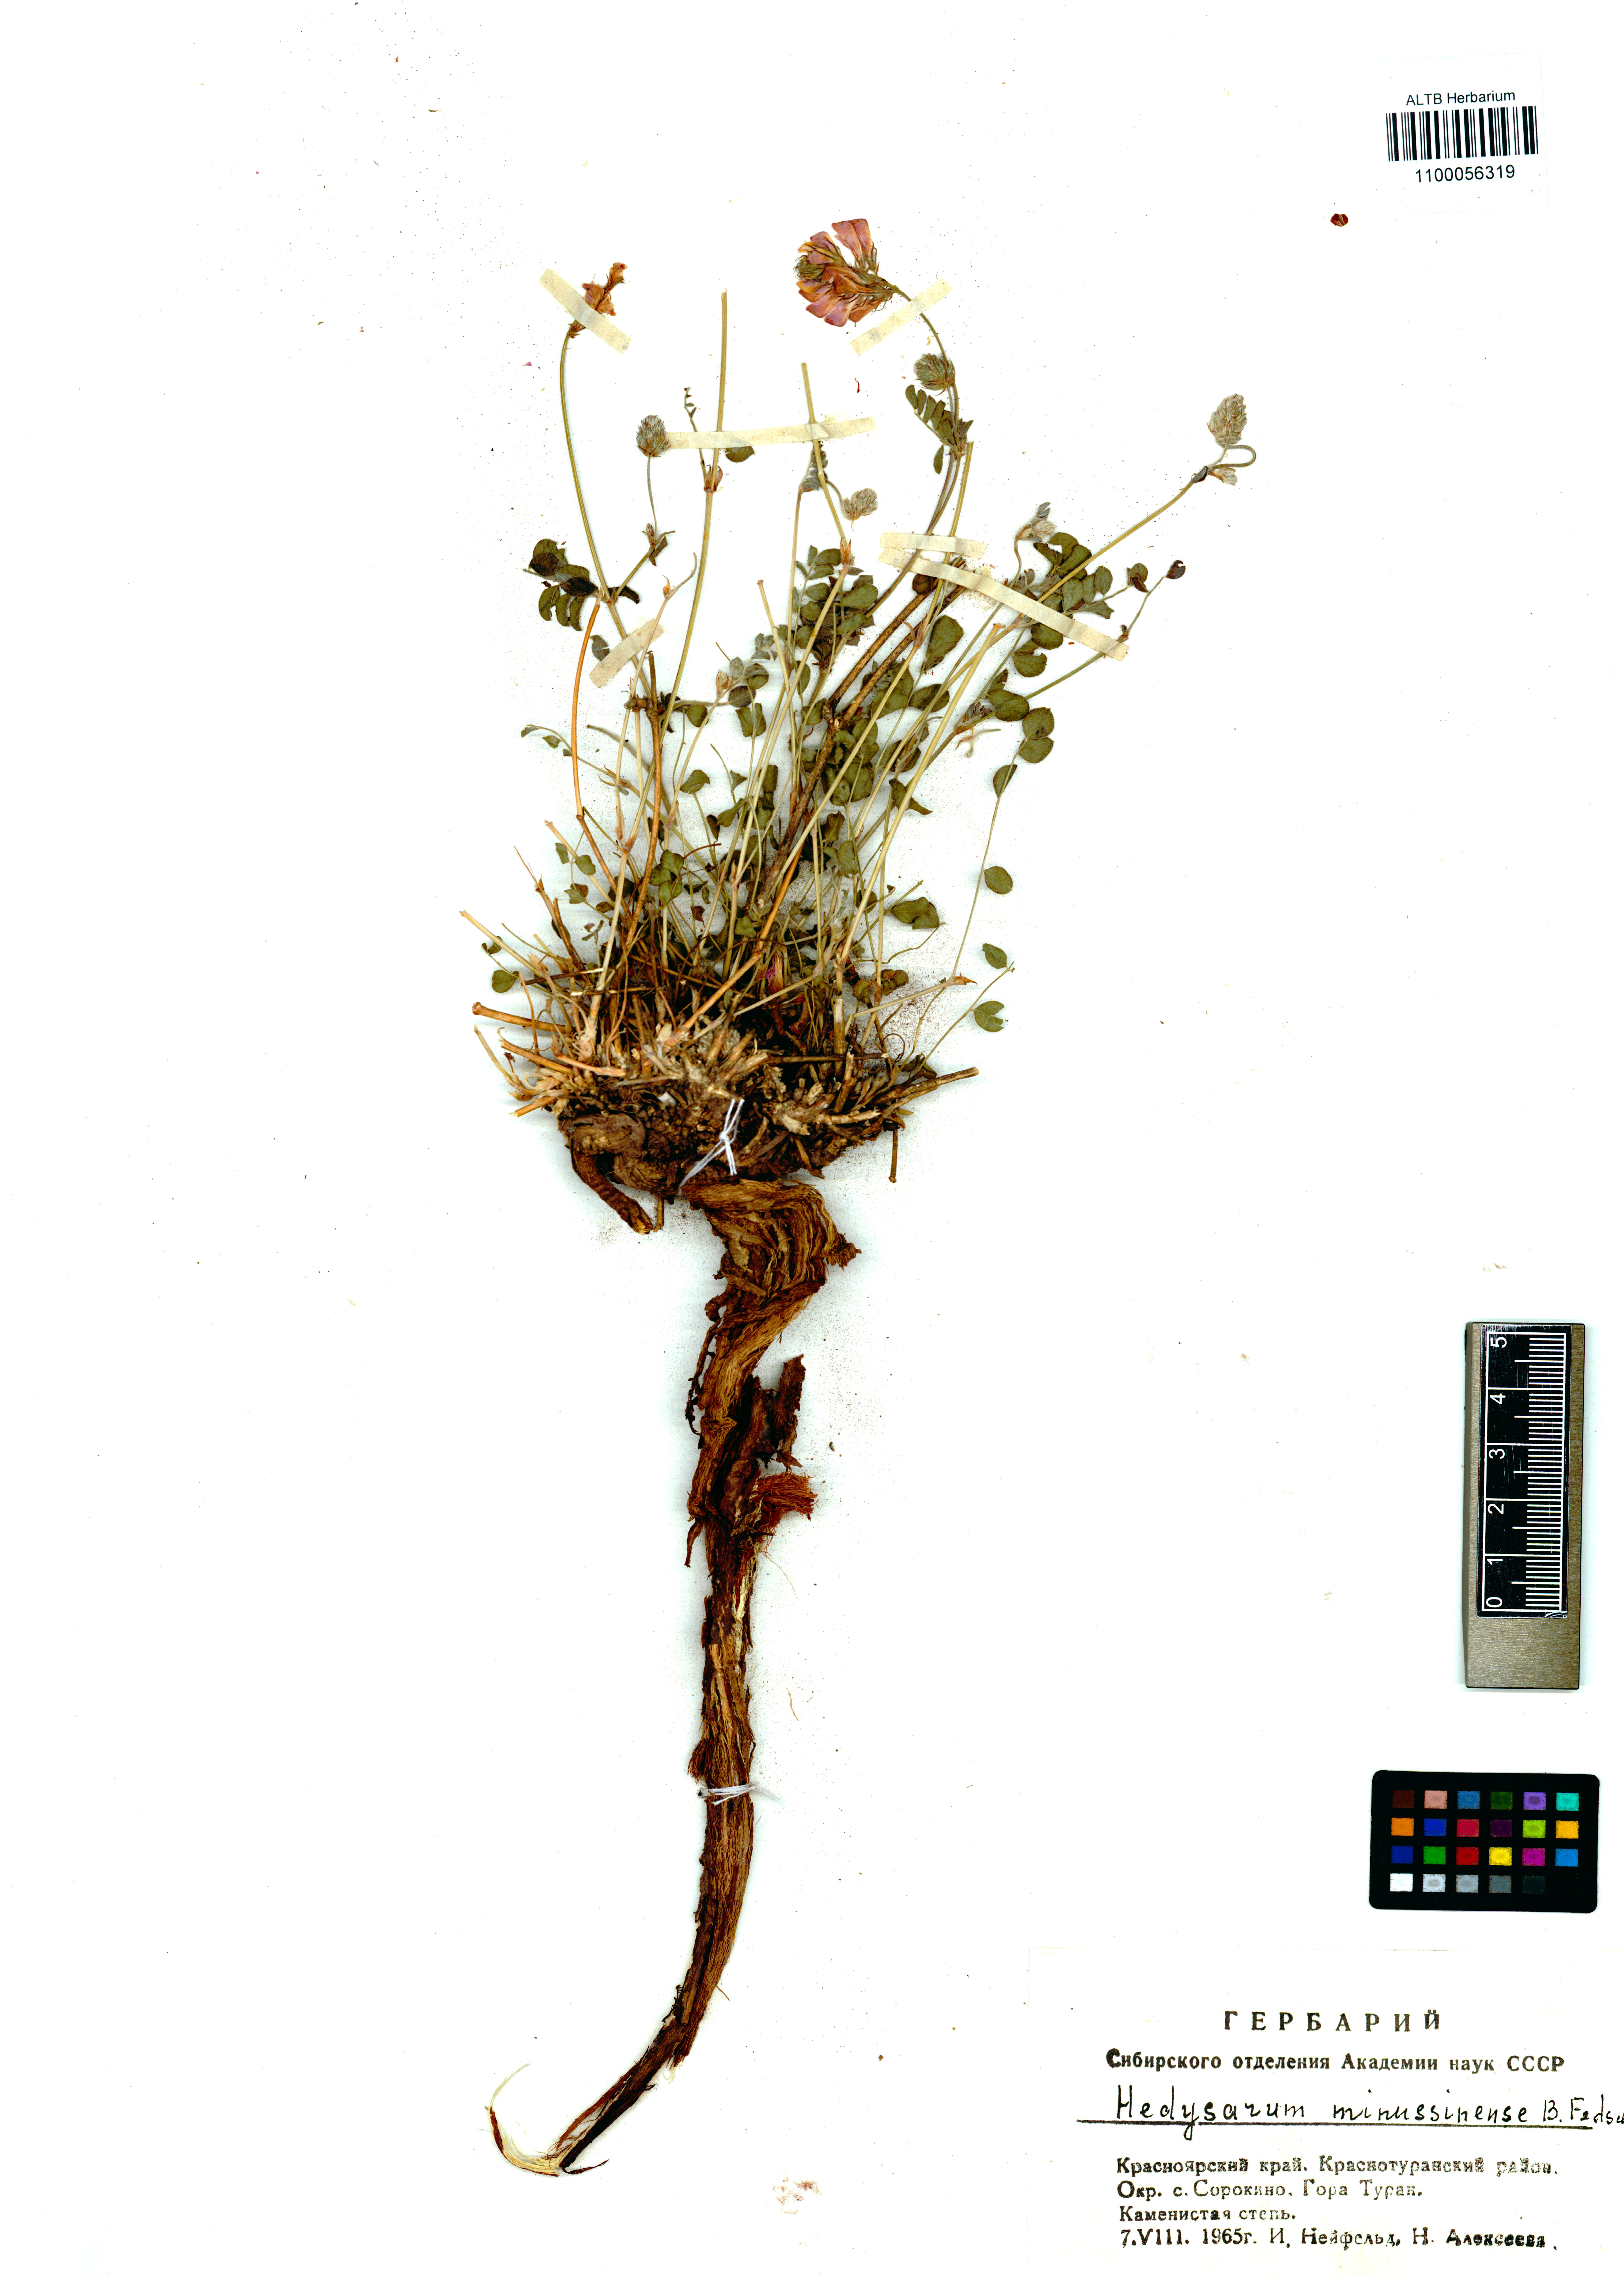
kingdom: Plantae
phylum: Tracheophyta
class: Magnoliopsida
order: Fabales
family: Fabaceae
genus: Hedysarum
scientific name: Hedysarum minussinense
